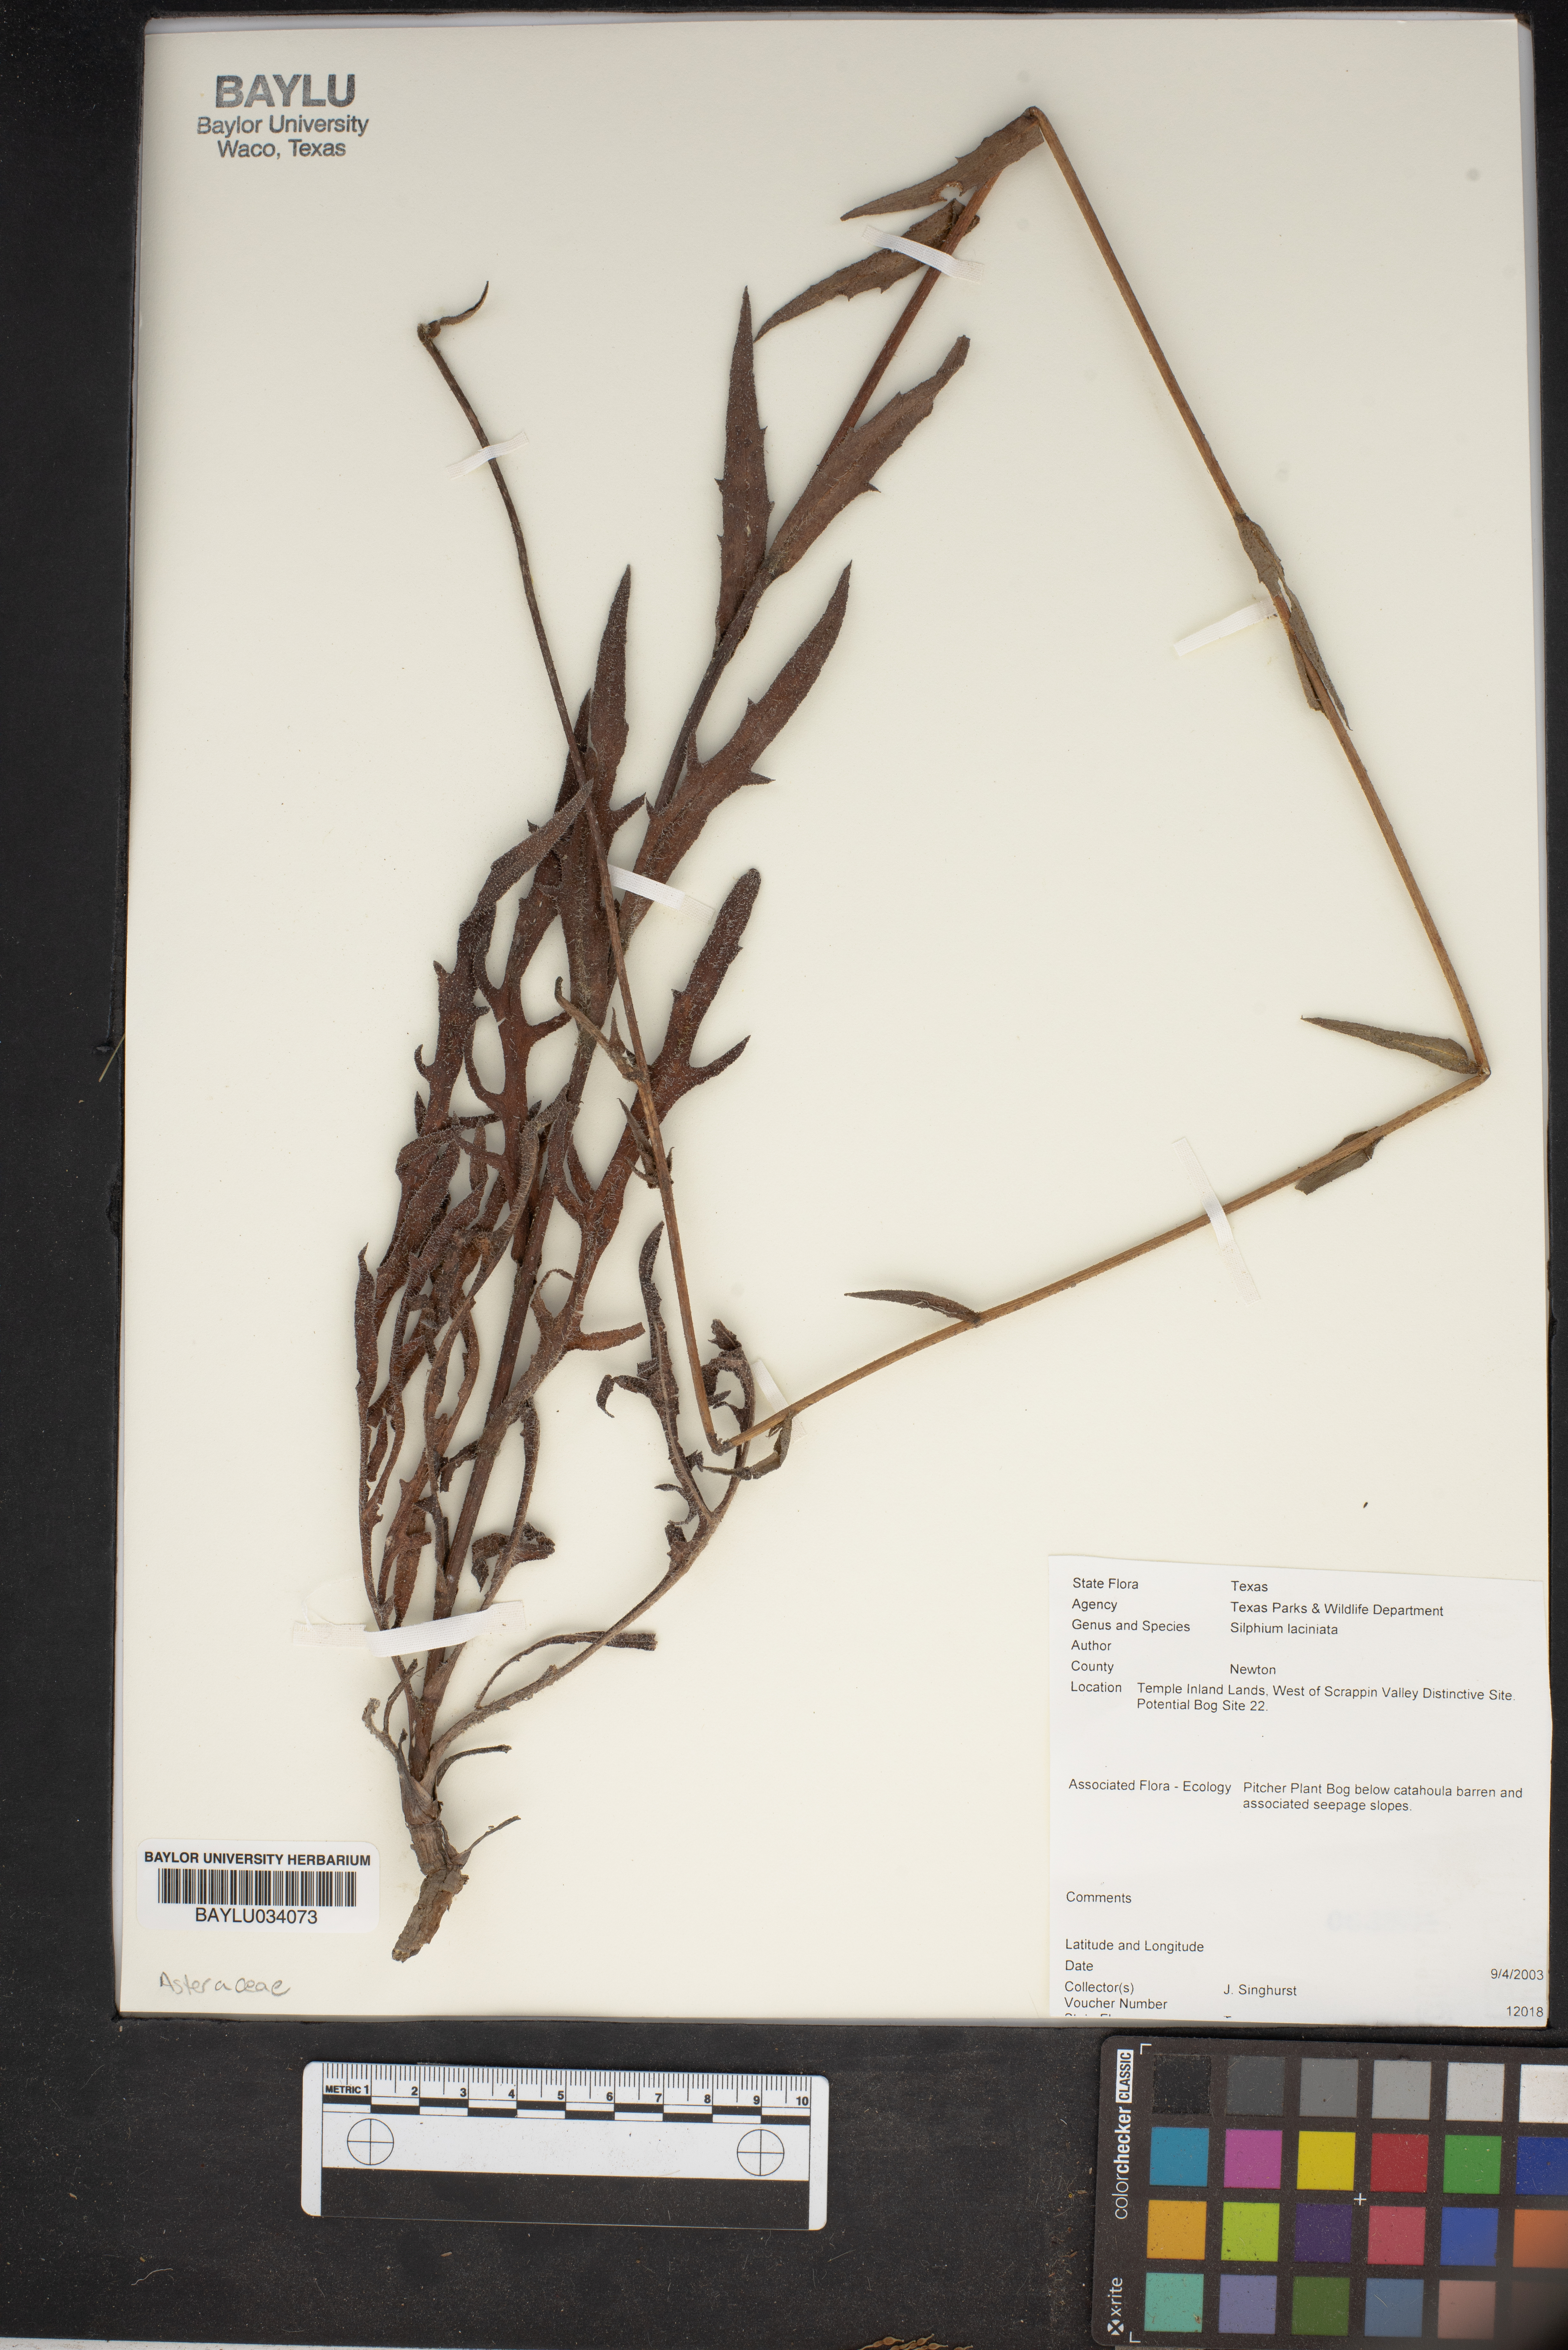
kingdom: Plantae
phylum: Tracheophyta
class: Magnoliopsida
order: Asterales
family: Asteraceae
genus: Silphium
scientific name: Silphium laciniatum
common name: Polarplant
